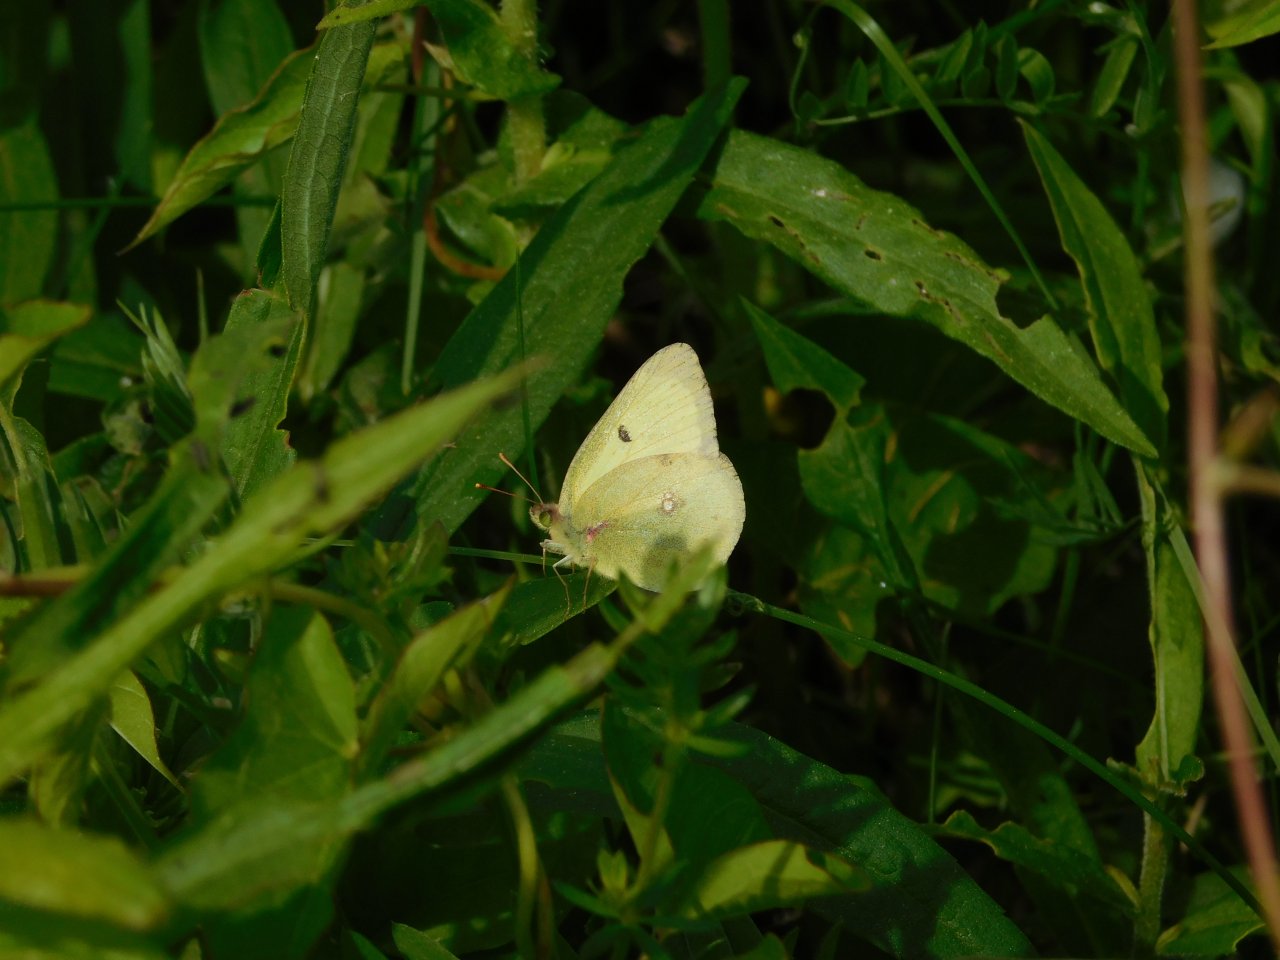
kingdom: Animalia
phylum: Arthropoda
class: Insecta
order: Lepidoptera
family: Pieridae
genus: Colias
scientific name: Colias philodice
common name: Clouded Sulphur
